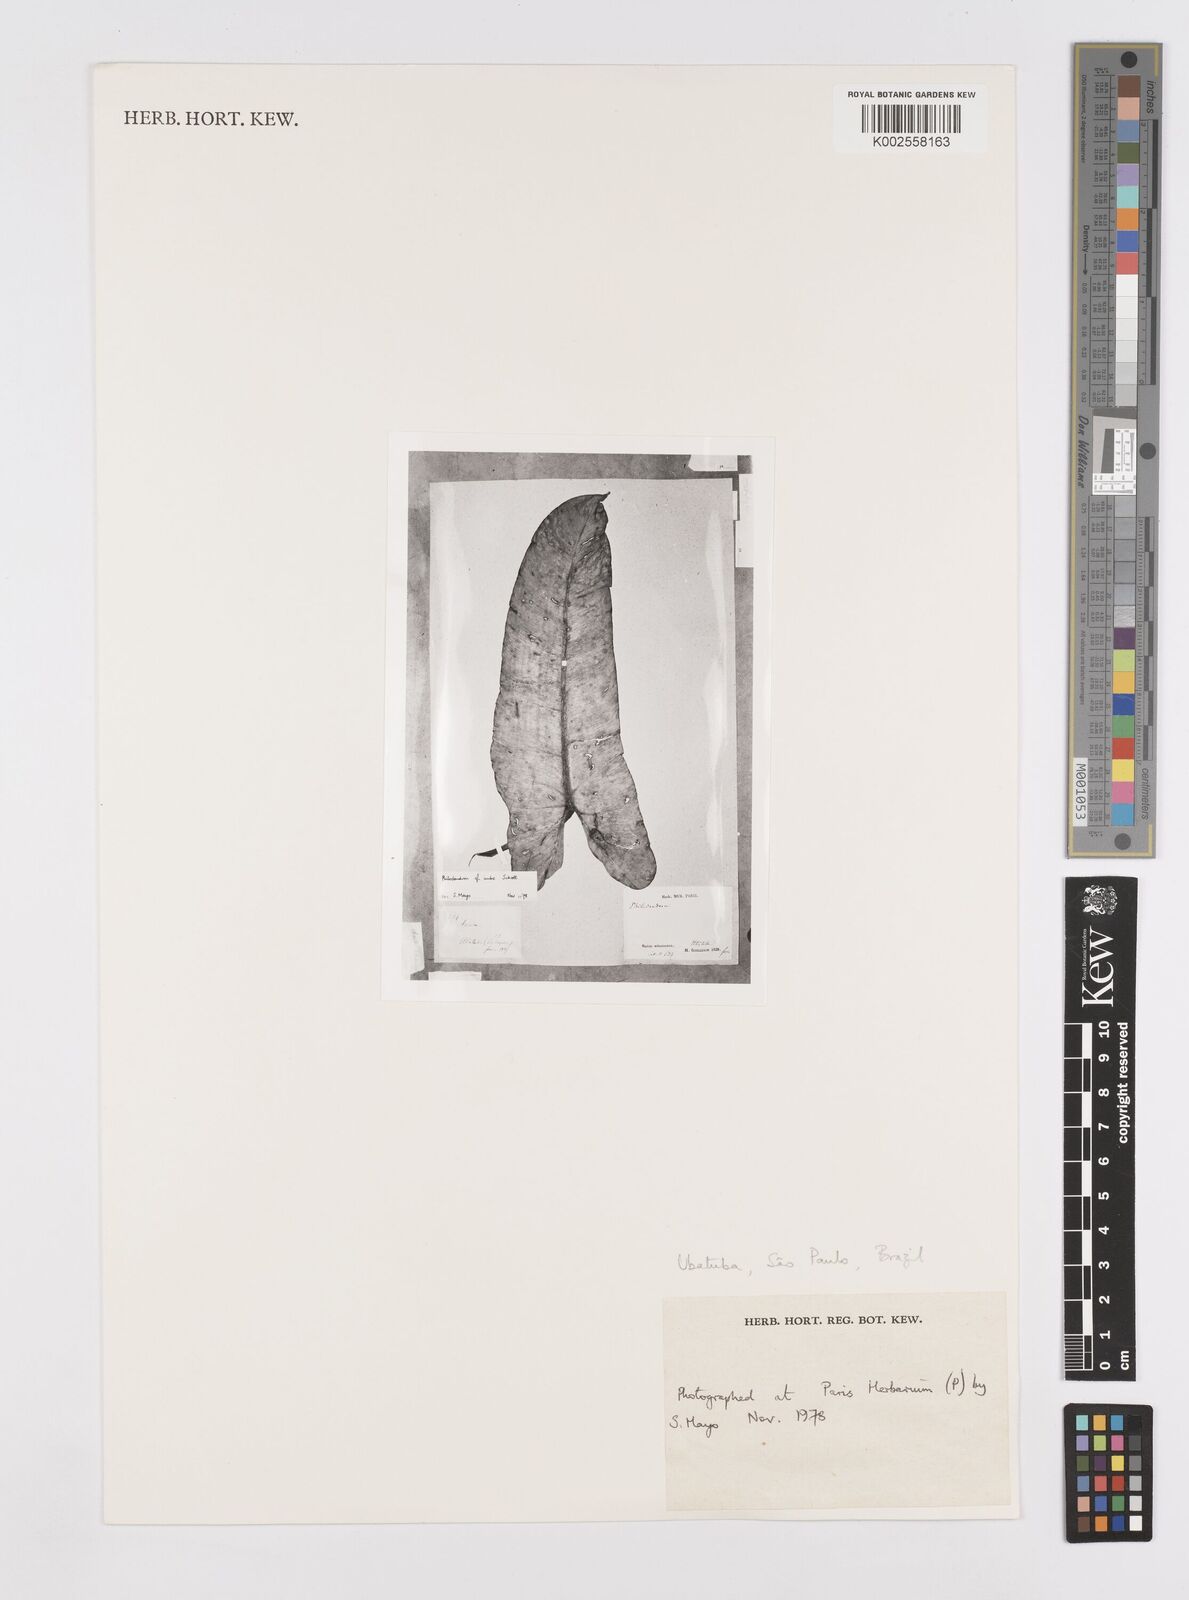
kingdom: Plantae
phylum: Tracheophyta
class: Liliopsida
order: Alismatales
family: Araceae
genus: Philodendron
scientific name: Philodendron loefgrenii
